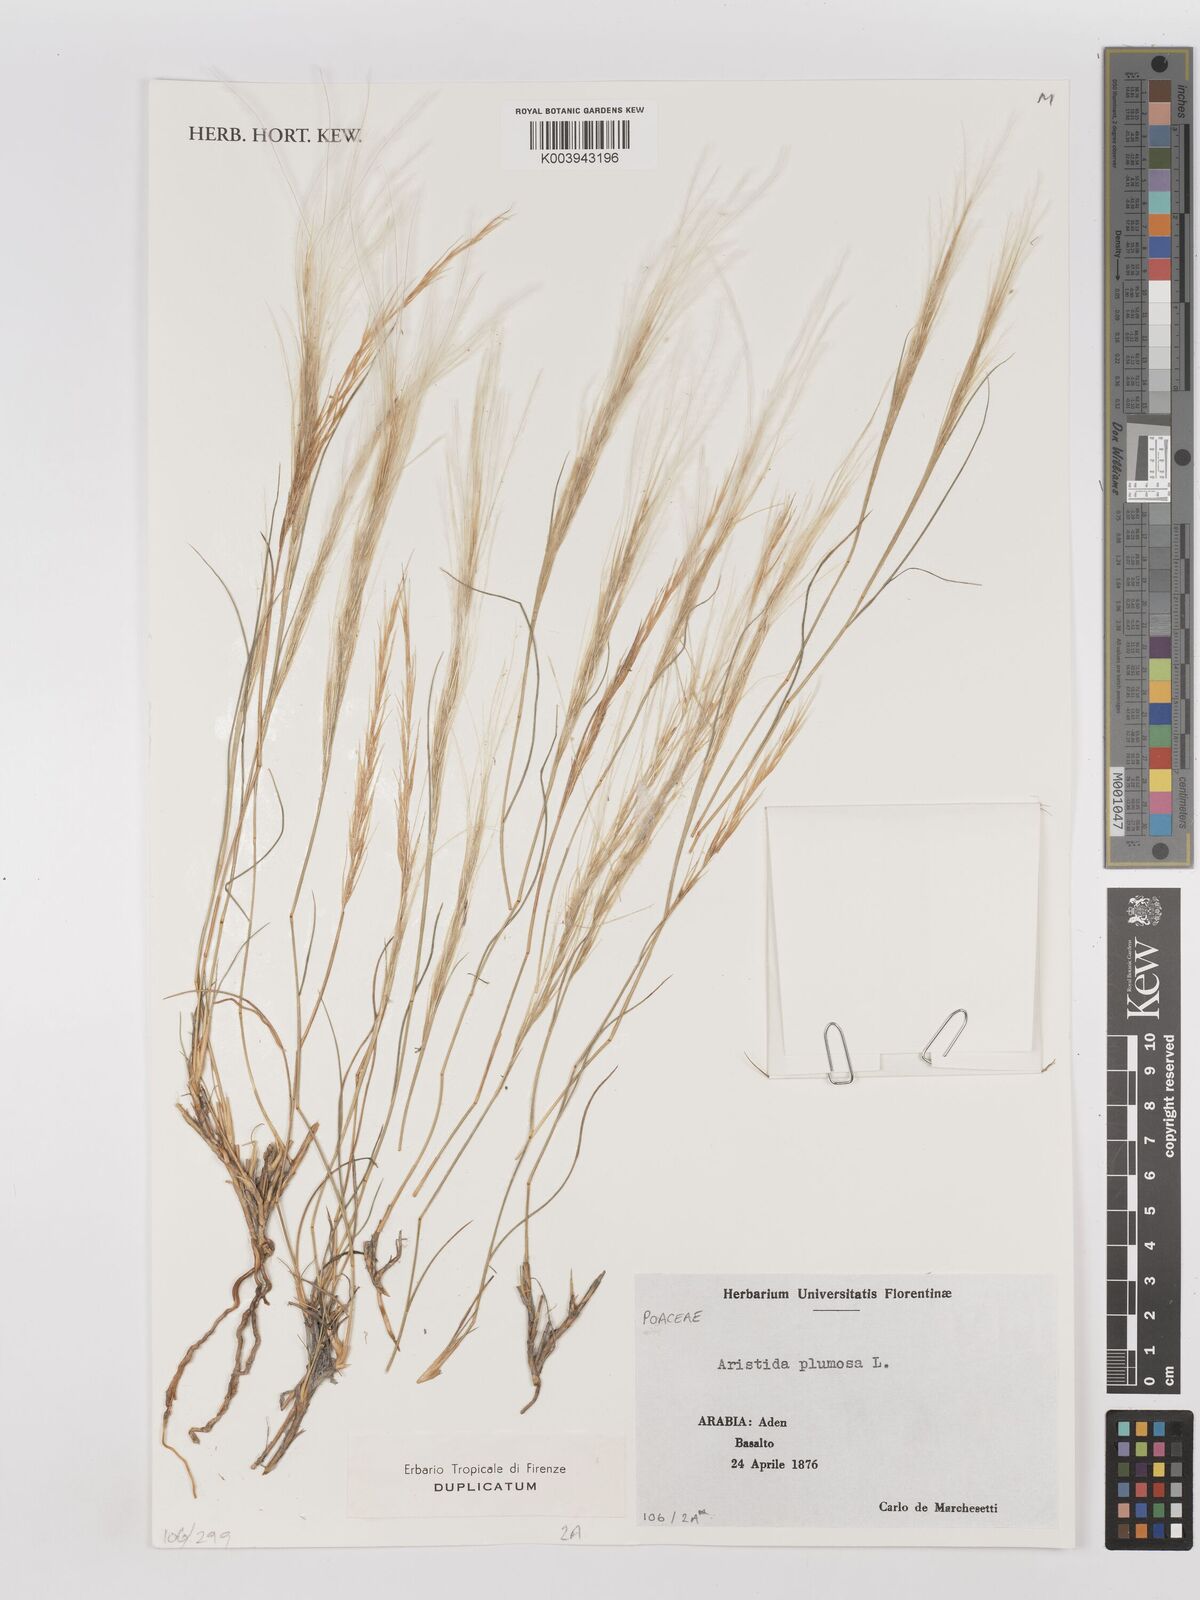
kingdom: Plantae
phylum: Tracheophyta
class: Liliopsida
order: Poales
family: Poaceae
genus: Stipagrostis
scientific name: Stipagrostis plumosa
